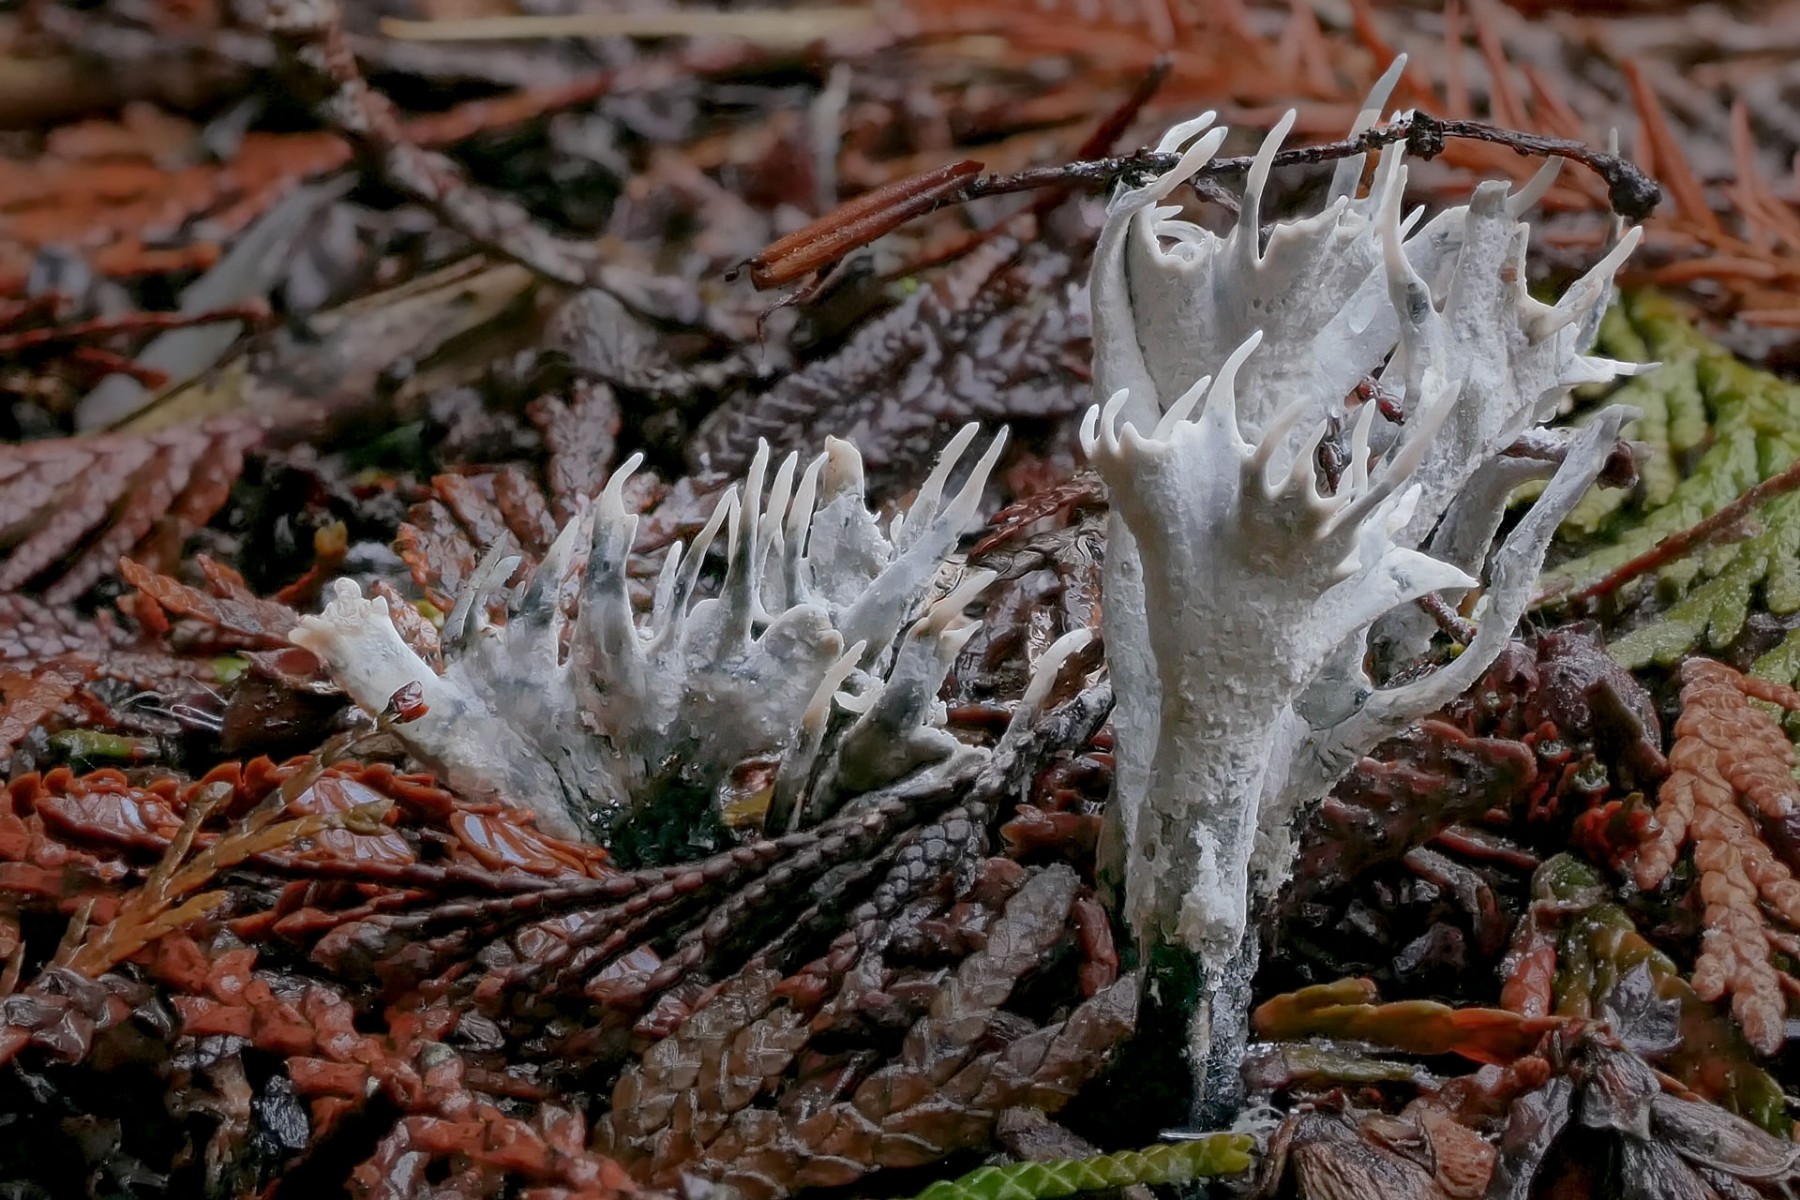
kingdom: Fungi
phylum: Ascomycota
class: Sordariomycetes
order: Xylariales
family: Xylariaceae
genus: Xylaria
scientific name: Xylaria hypoxylon
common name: grenet stødsvamp
